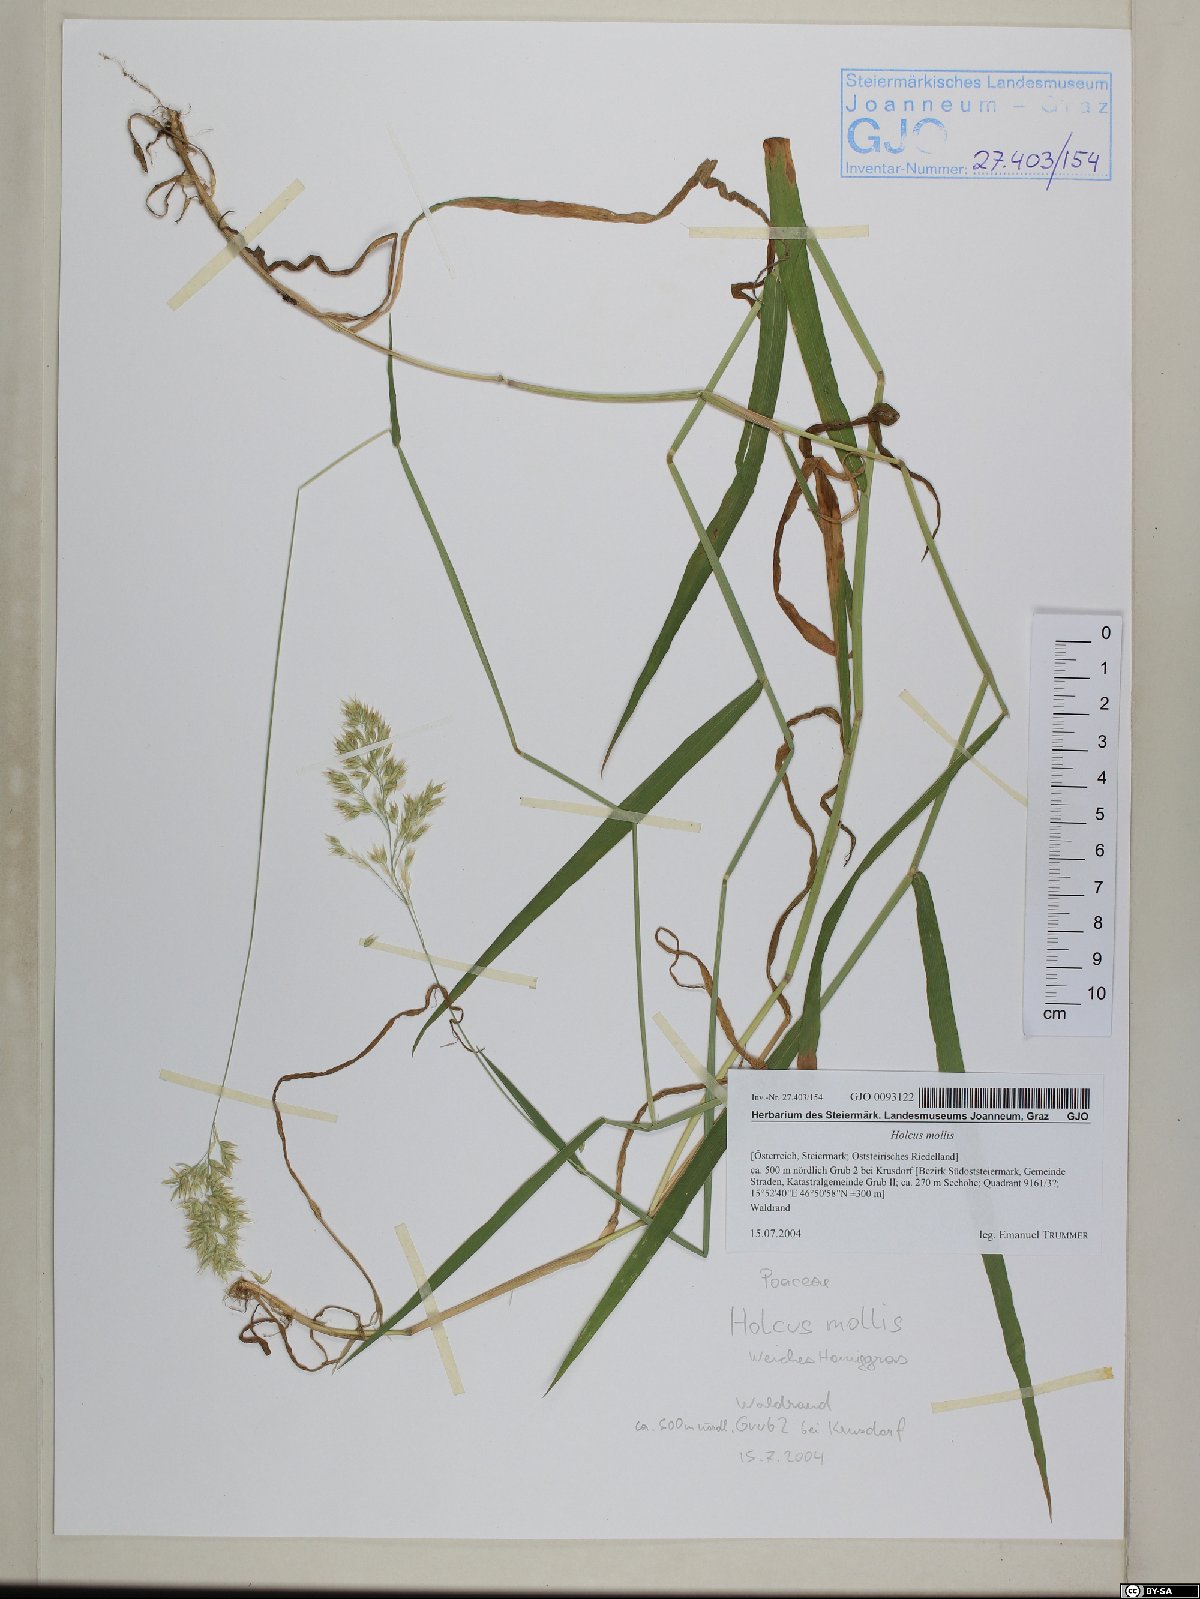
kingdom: Plantae
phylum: Tracheophyta
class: Liliopsida
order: Poales
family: Poaceae
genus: Holcus
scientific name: Holcus mollis
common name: Creeping velvetgrass
